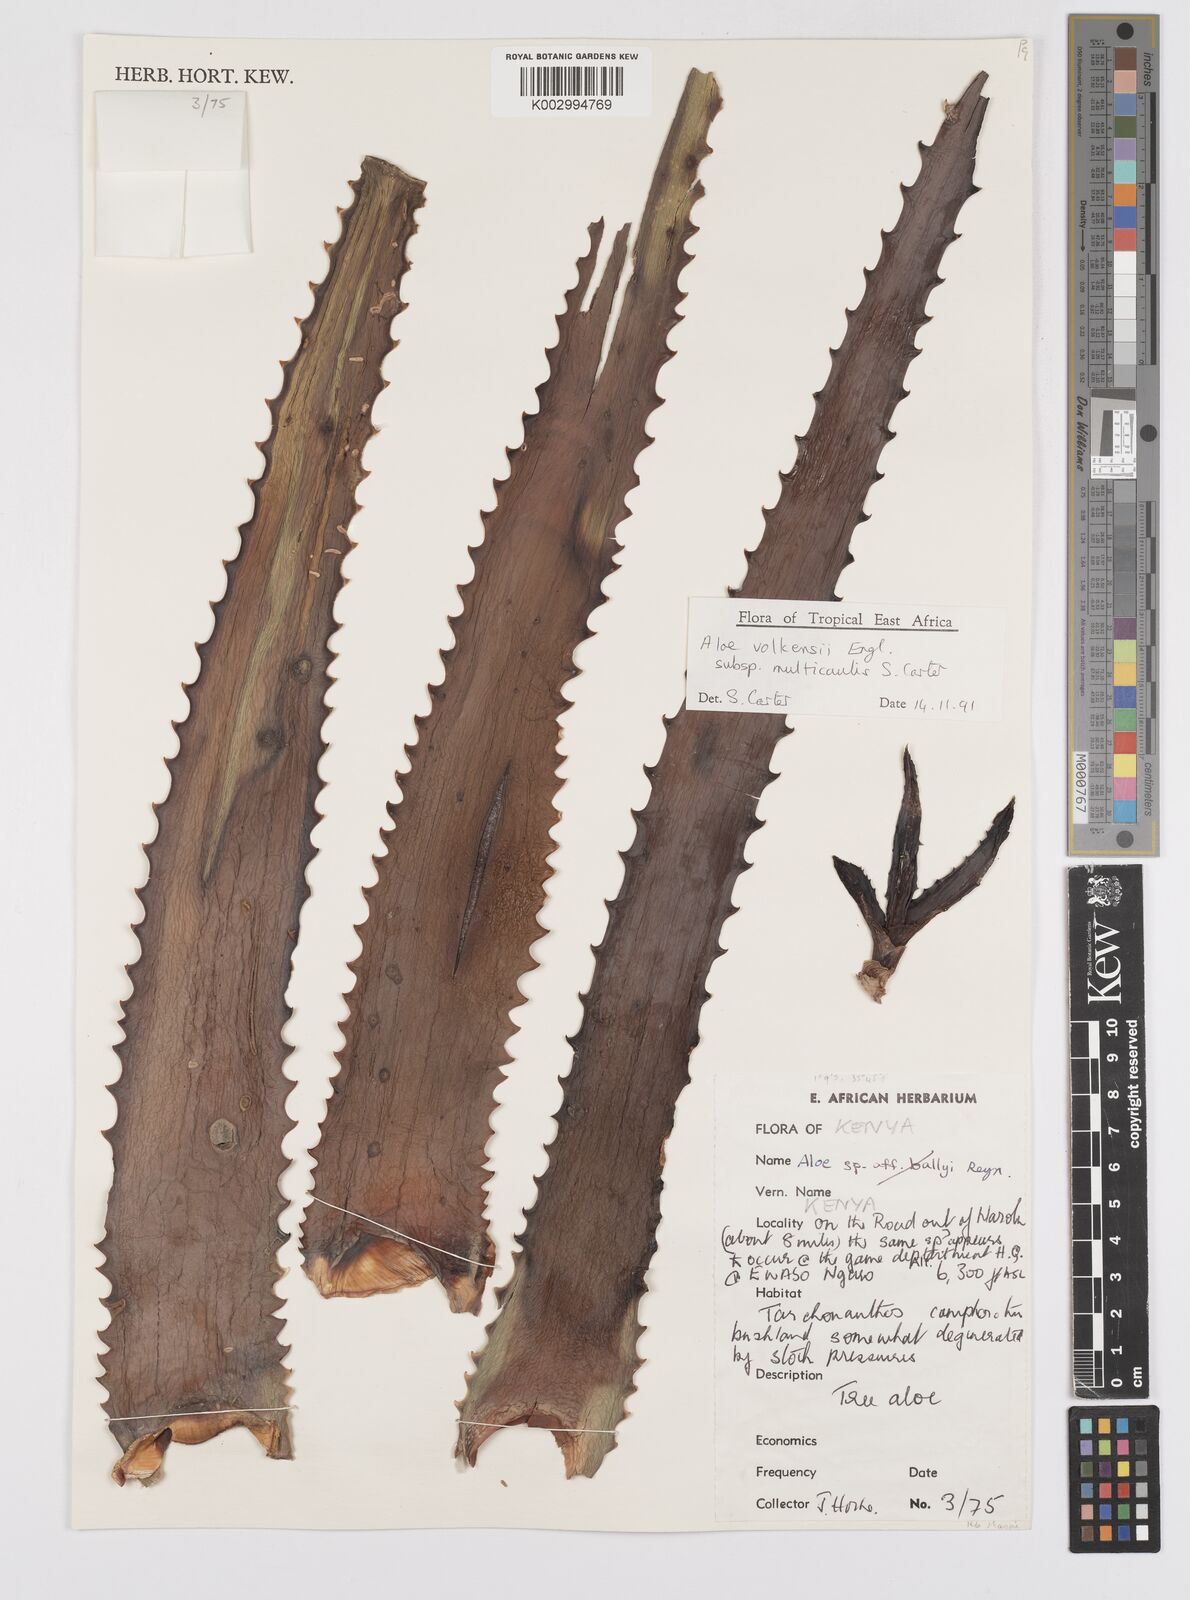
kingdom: Plantae
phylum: Tracheophyta
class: Liliopsida
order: Asparagales
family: Asphodelaceae
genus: Aloe
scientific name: Aloe volkensii
